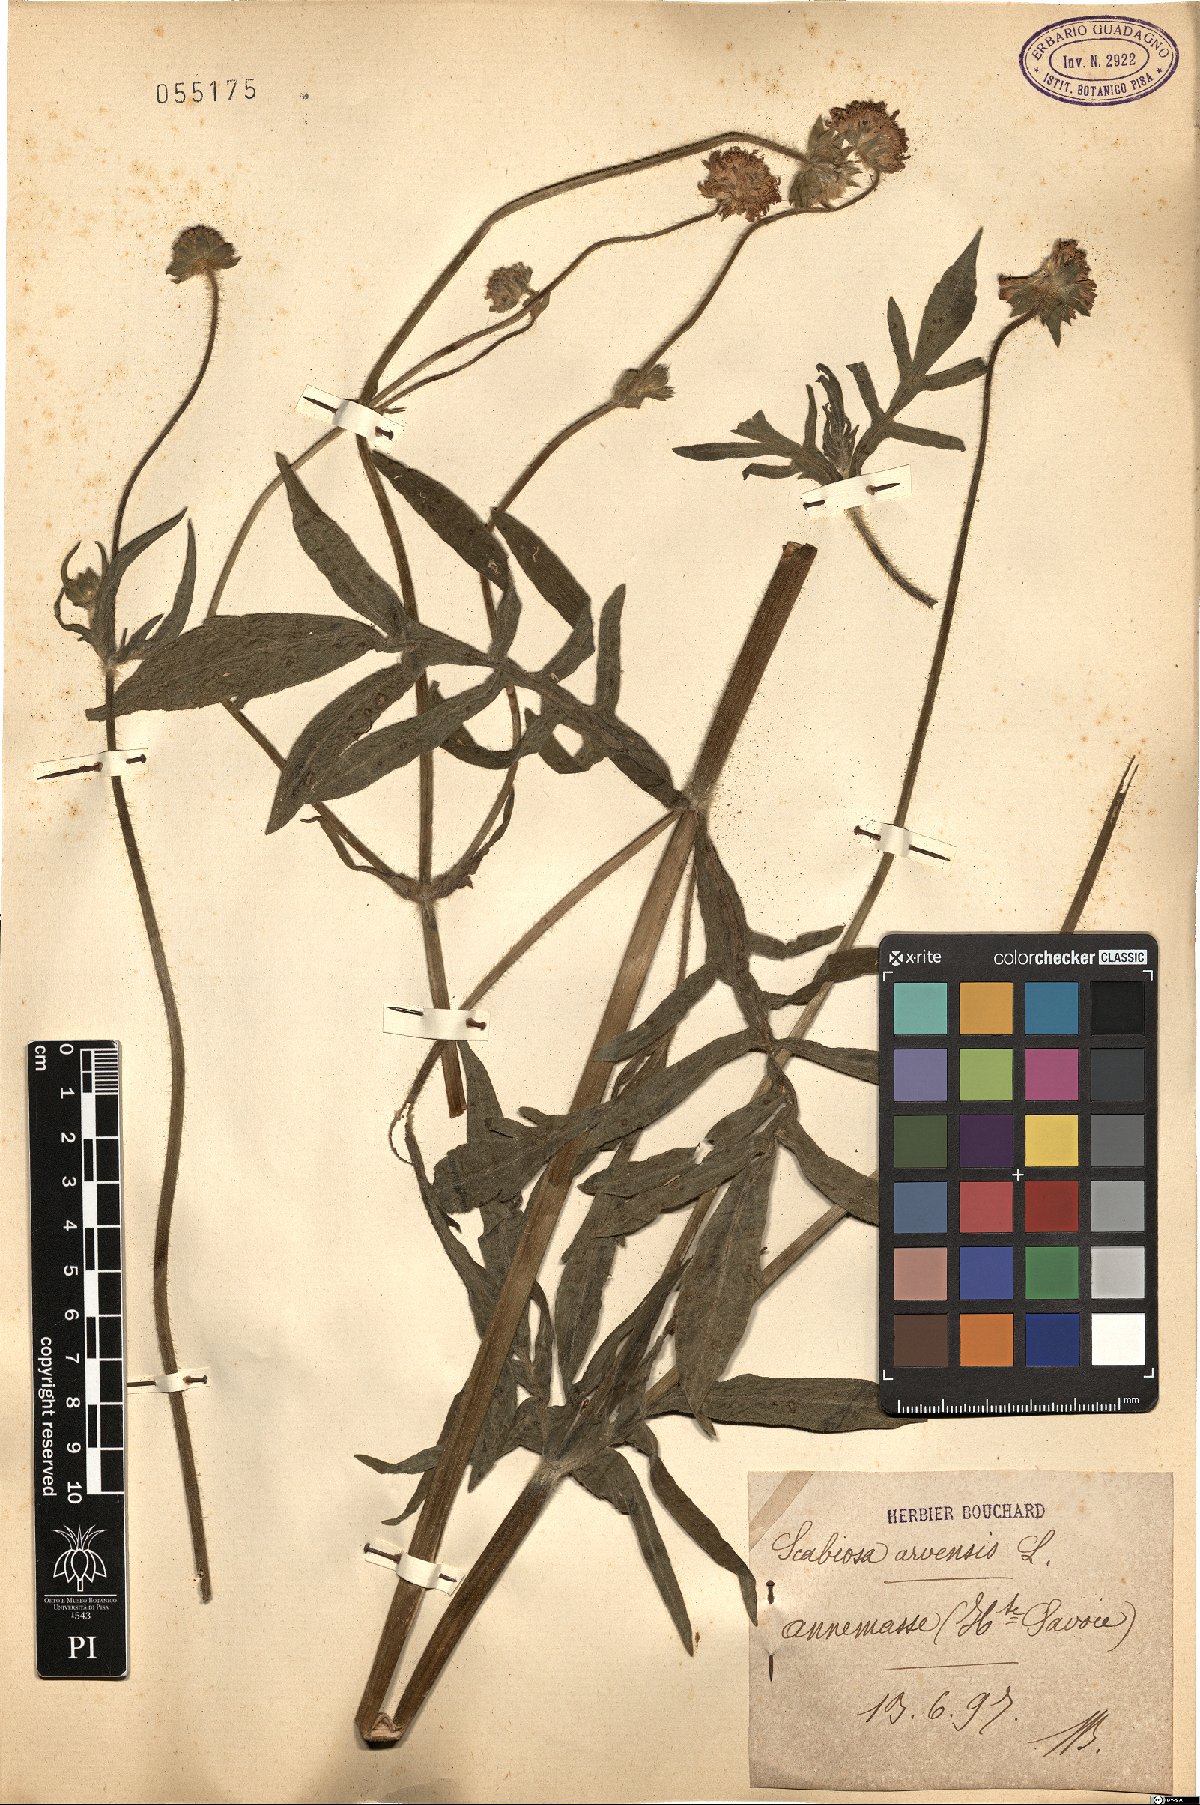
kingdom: Plantae
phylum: Tracheophyta
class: Magnoliopsida
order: Dipsacales
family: Caprifoliaceae
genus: Knautia
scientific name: Knautia arvensis
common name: Field scabiosa
